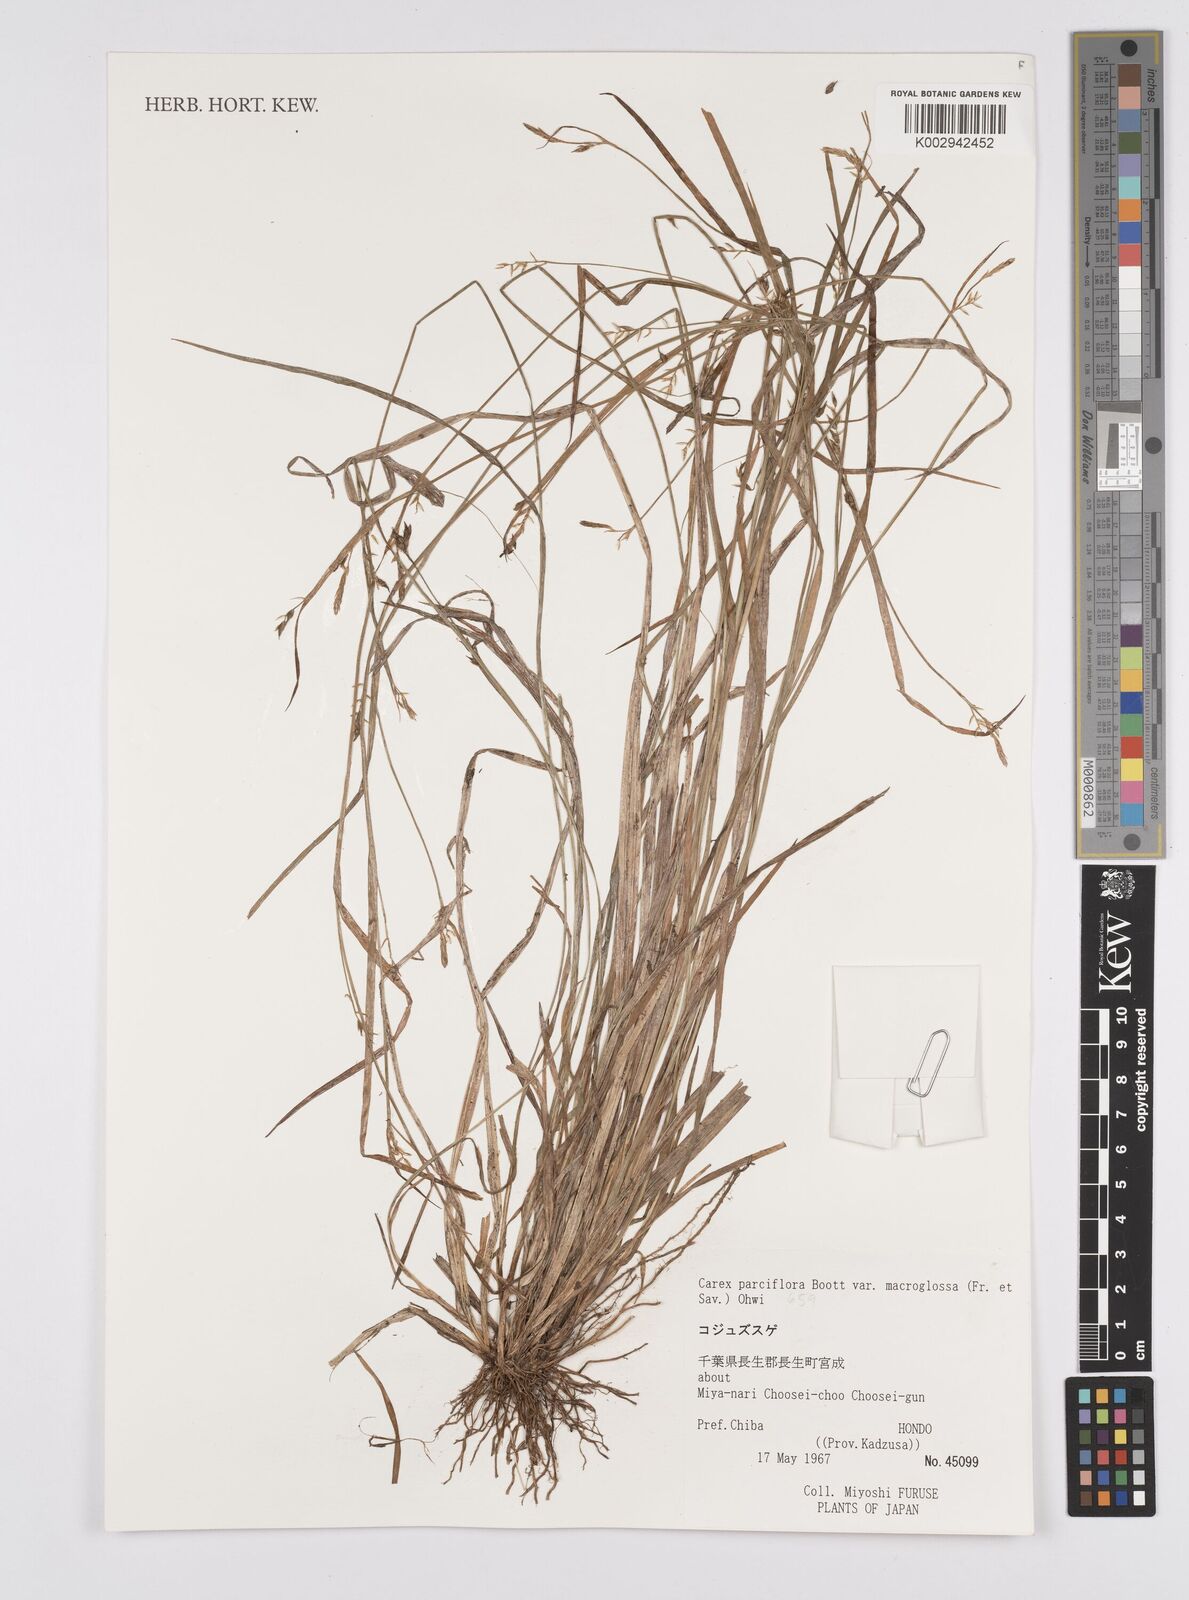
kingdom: Plantae
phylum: Tracheophyta
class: Liliopsida
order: Poales
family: Cyperaceae
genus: Carex
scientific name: Carex oxyphylla
